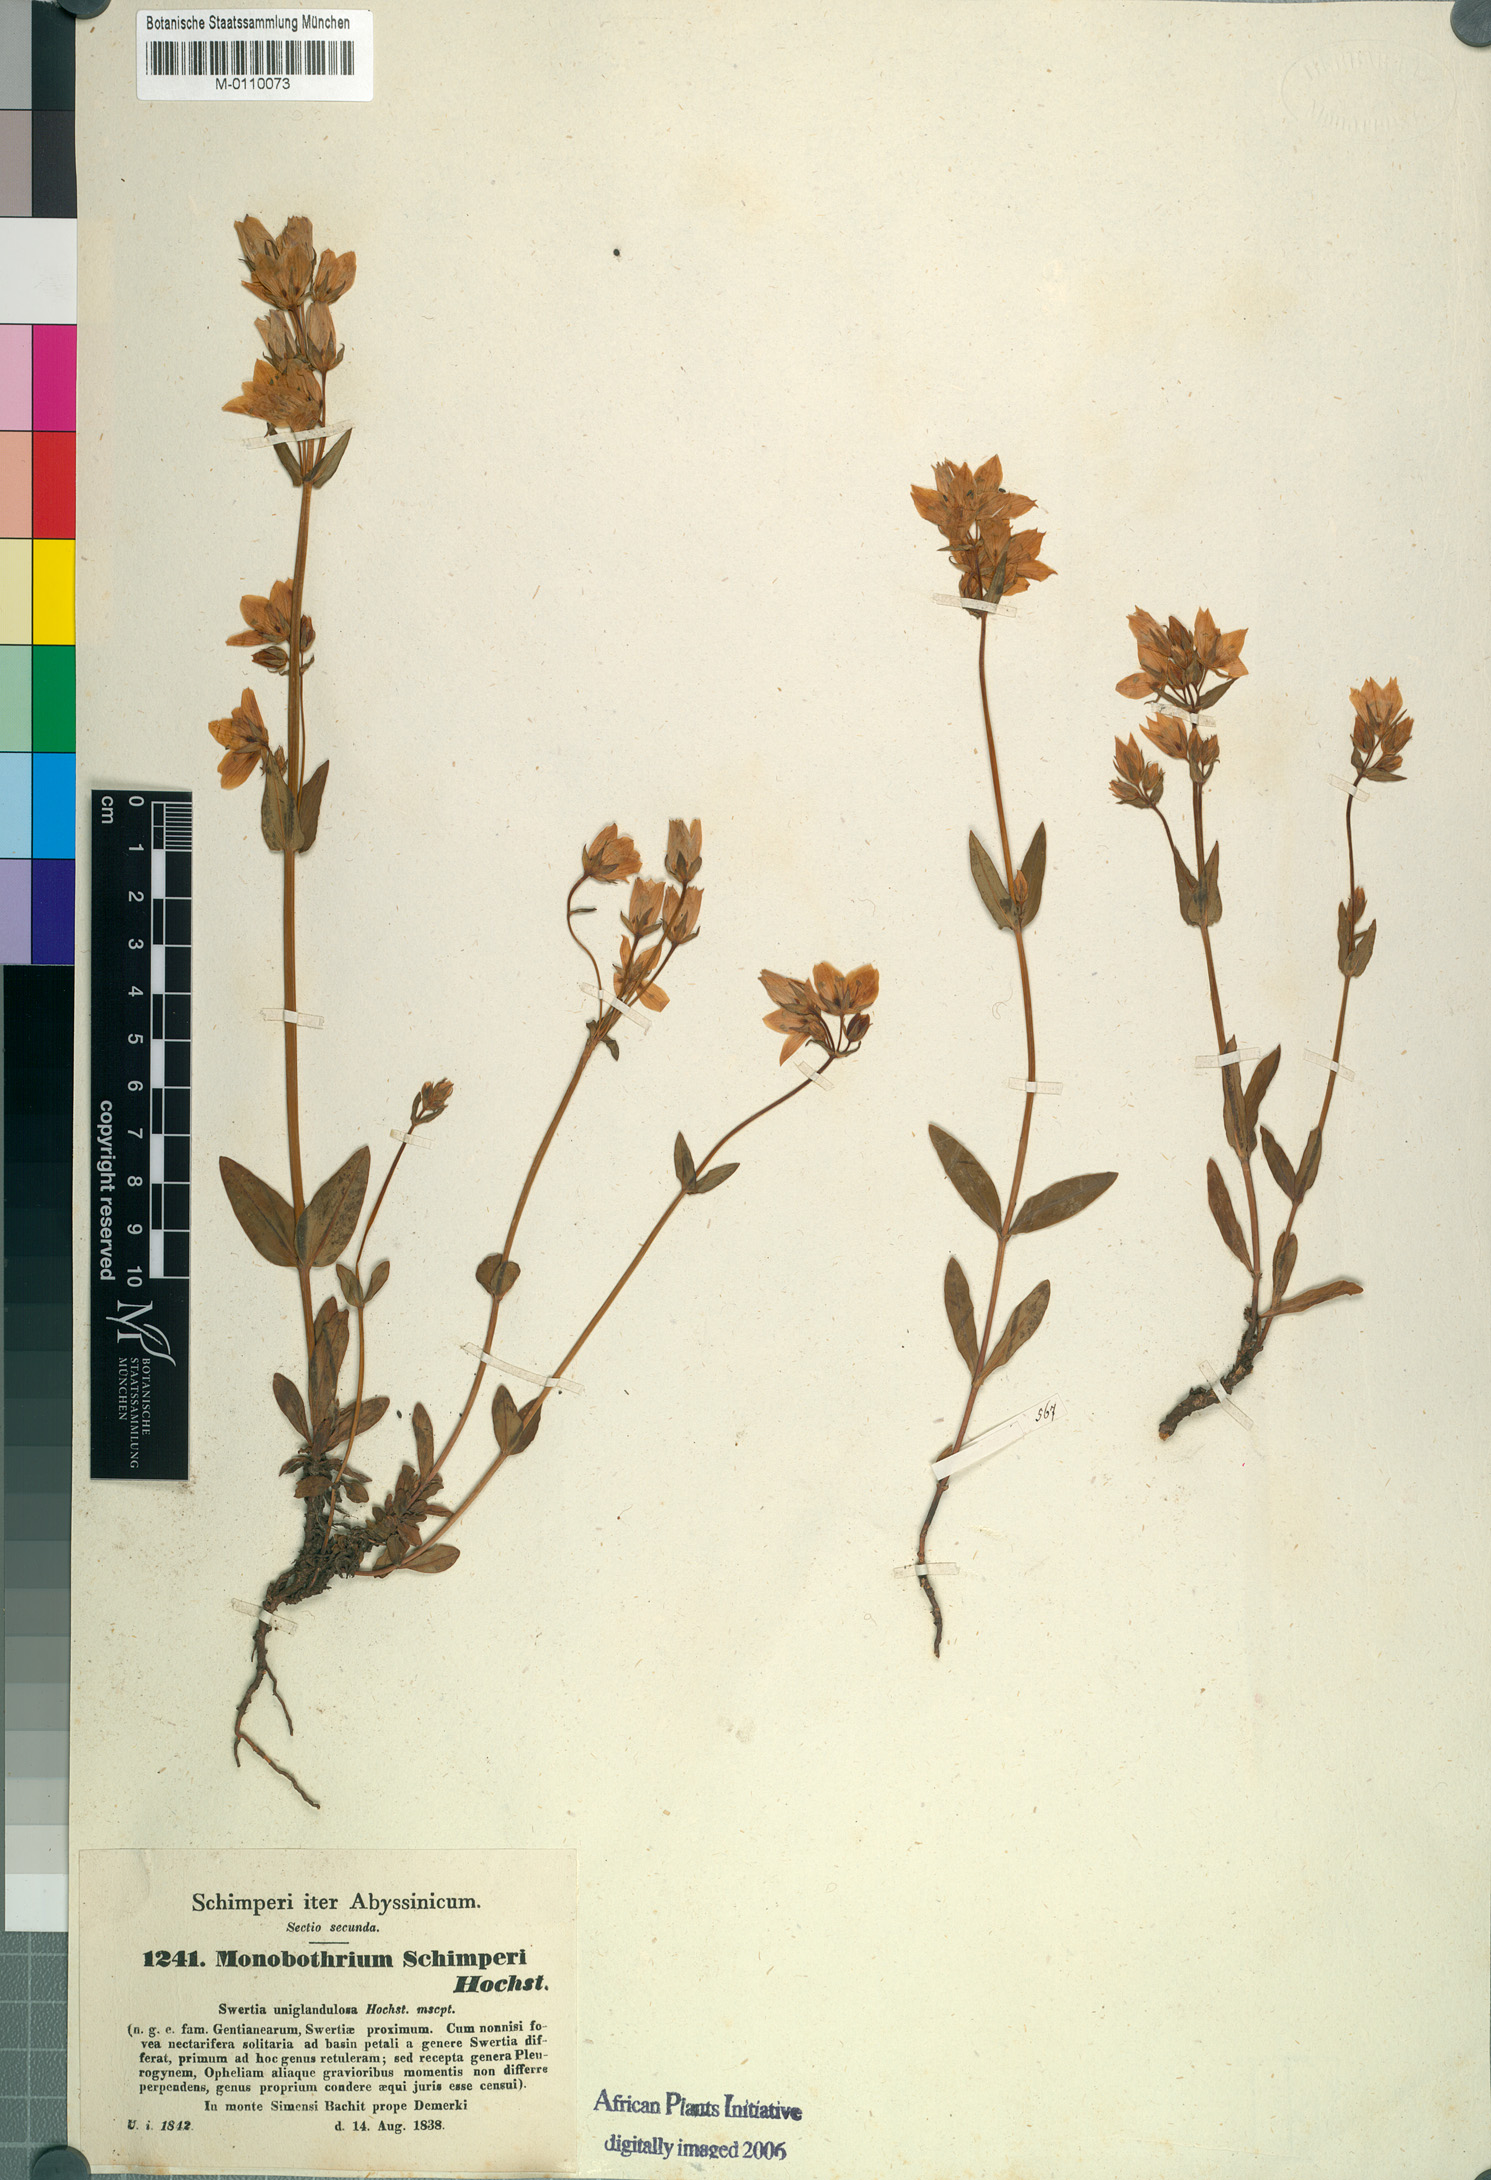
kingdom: Plantae
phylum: Tracheophyta
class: Magnoliopsida
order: Gentianales
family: Gentianaceae
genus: Swertia
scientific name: Swertia schimperi
